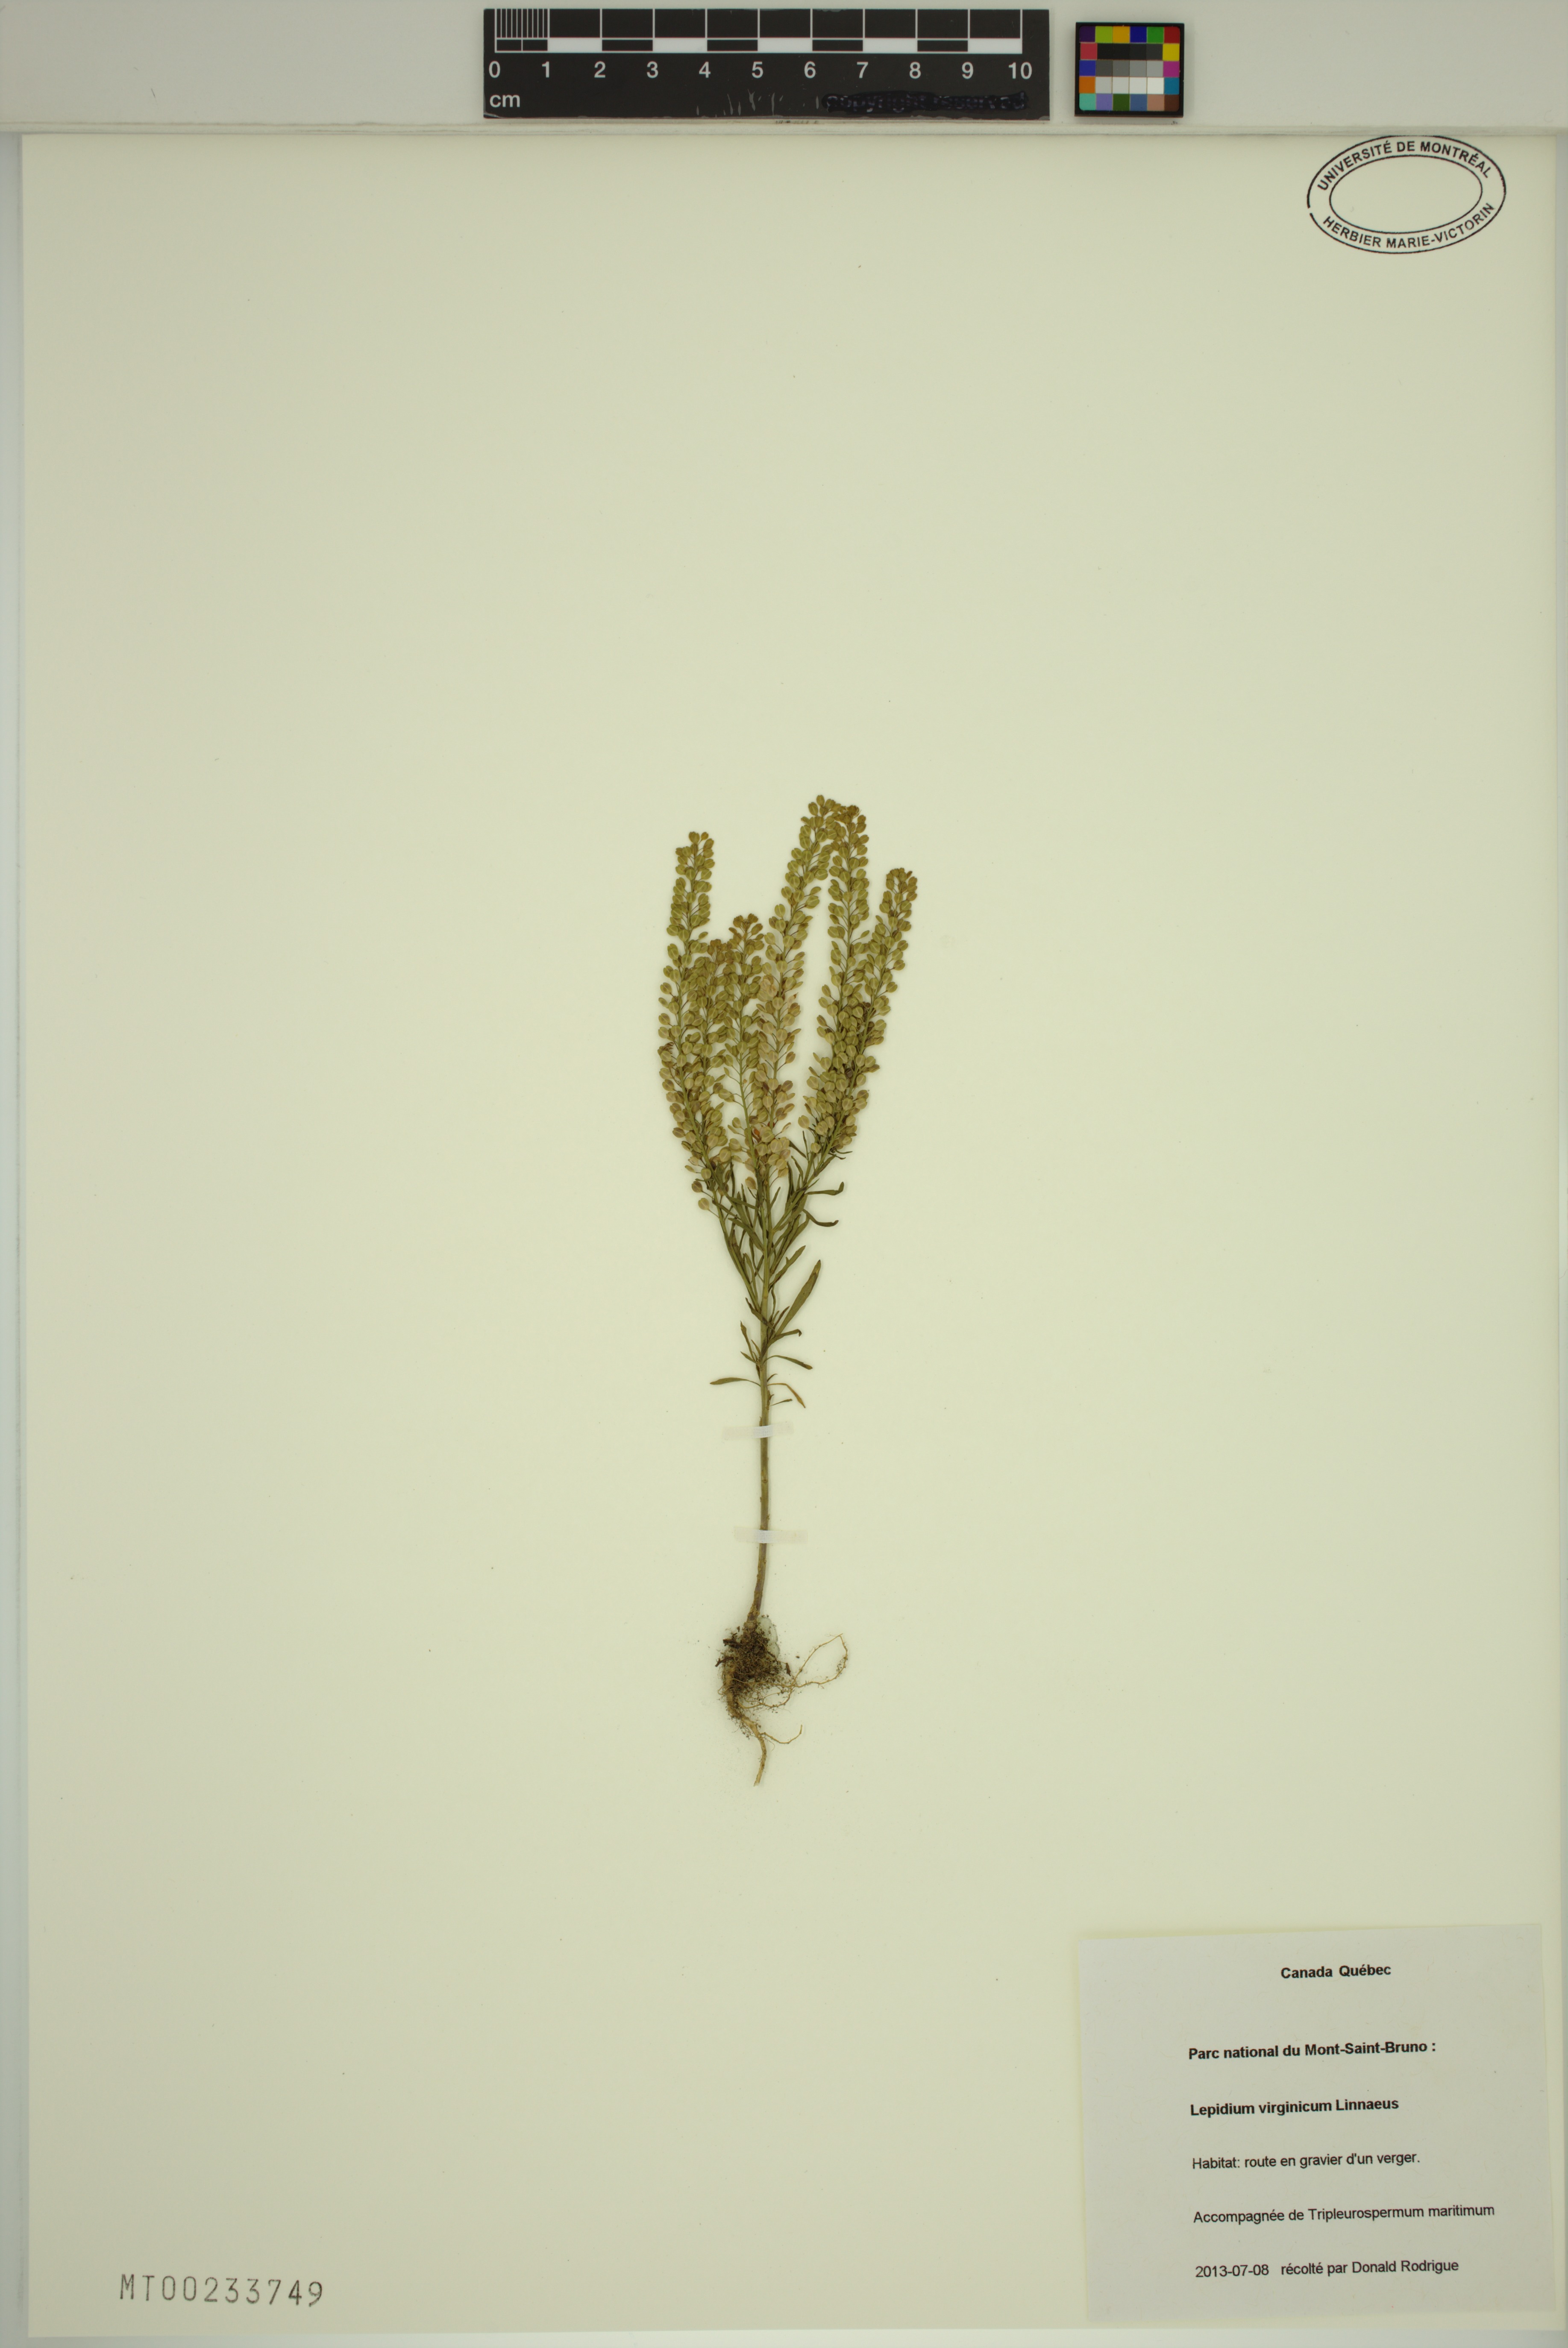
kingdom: Plantae
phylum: Tracheophyta
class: Magnoliopsida
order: Brassicales
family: Brassicaceae
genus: Lepidium
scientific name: Lepidium virginicum
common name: Least pepperwort
